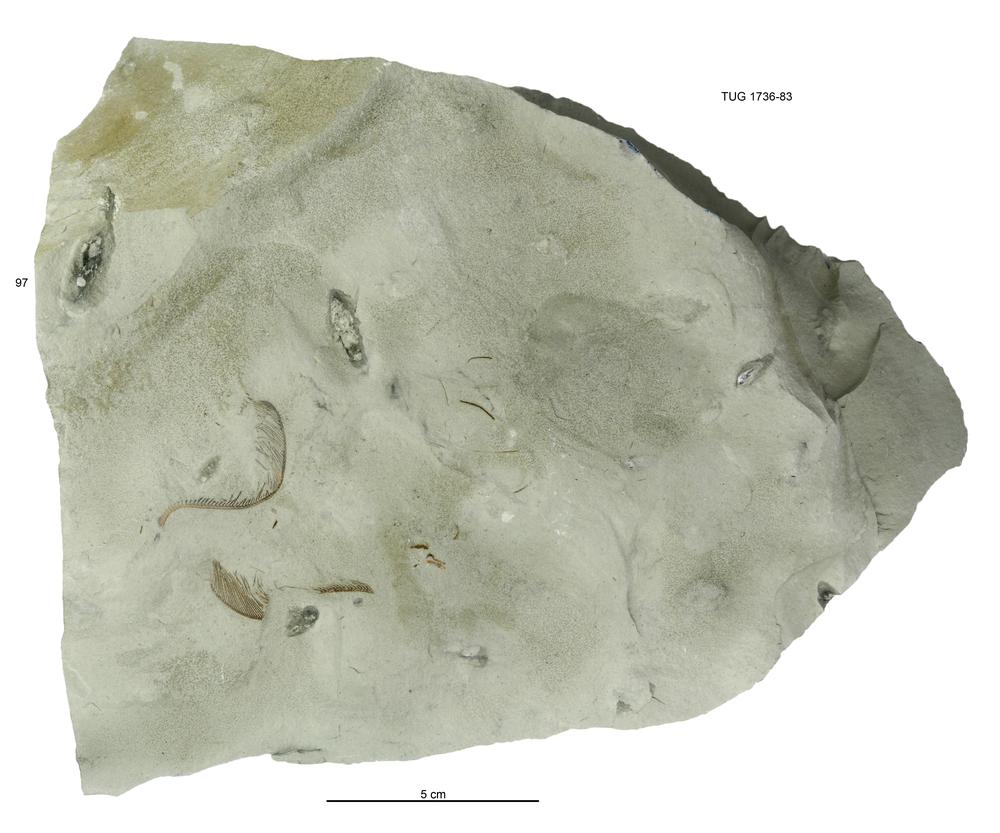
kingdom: Animalia
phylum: Echinodermata
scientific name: Echinodermata
